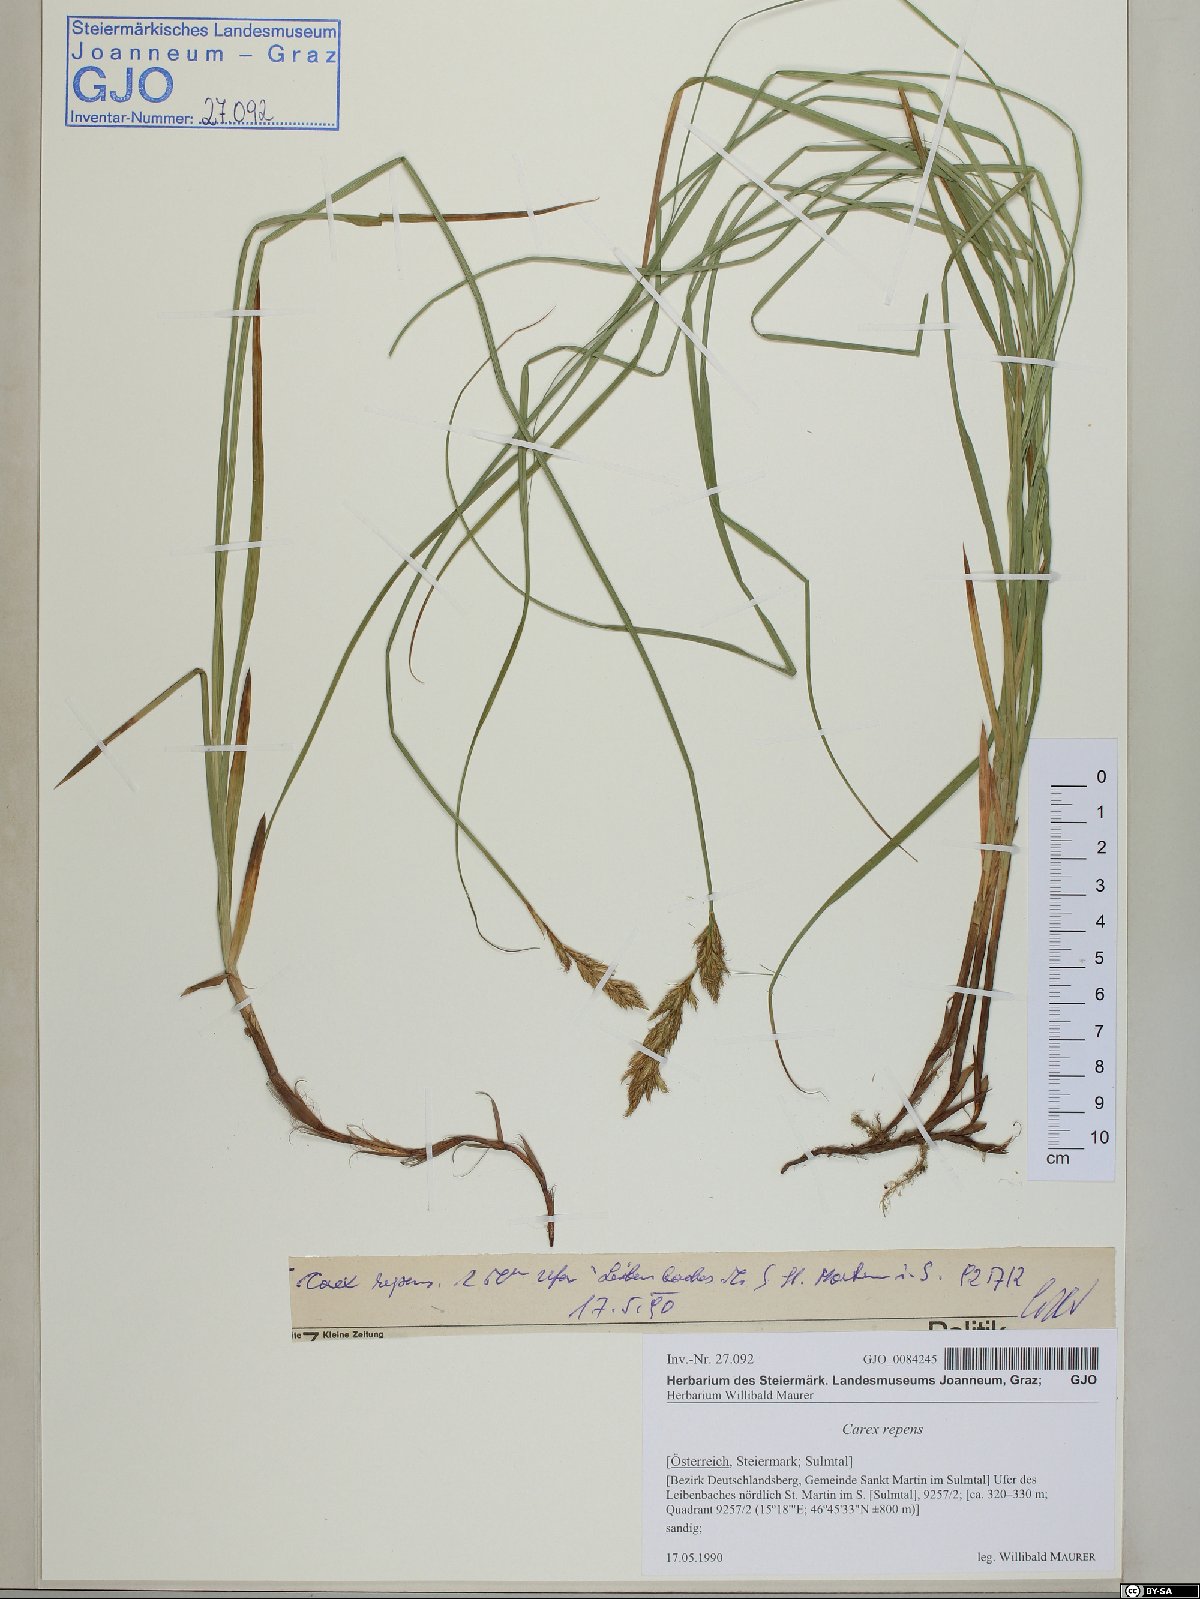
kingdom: Plantae
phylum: Tracheophyta
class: Liliopsida
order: Poales
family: Cyperaceae
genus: Carex
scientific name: Carex repens
